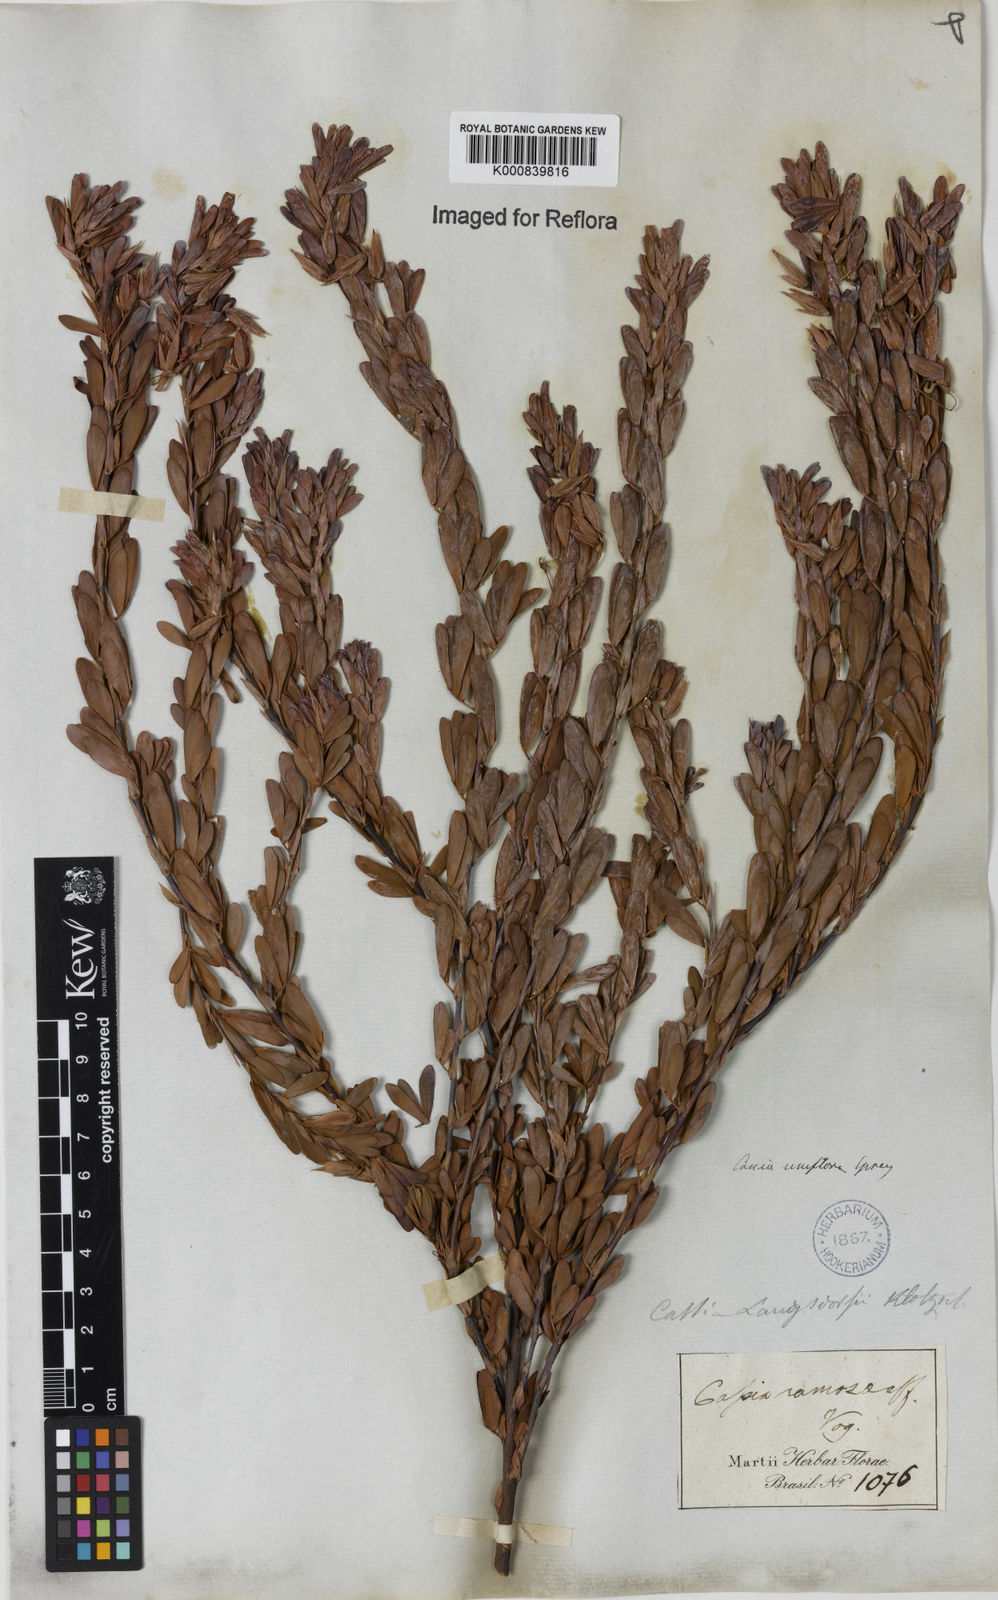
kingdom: Plantae
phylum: Tracheophyta
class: Magnoliopsida
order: Fabales
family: Fabaceae
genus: Chamaecrista
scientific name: Chamaecrista ramosa
